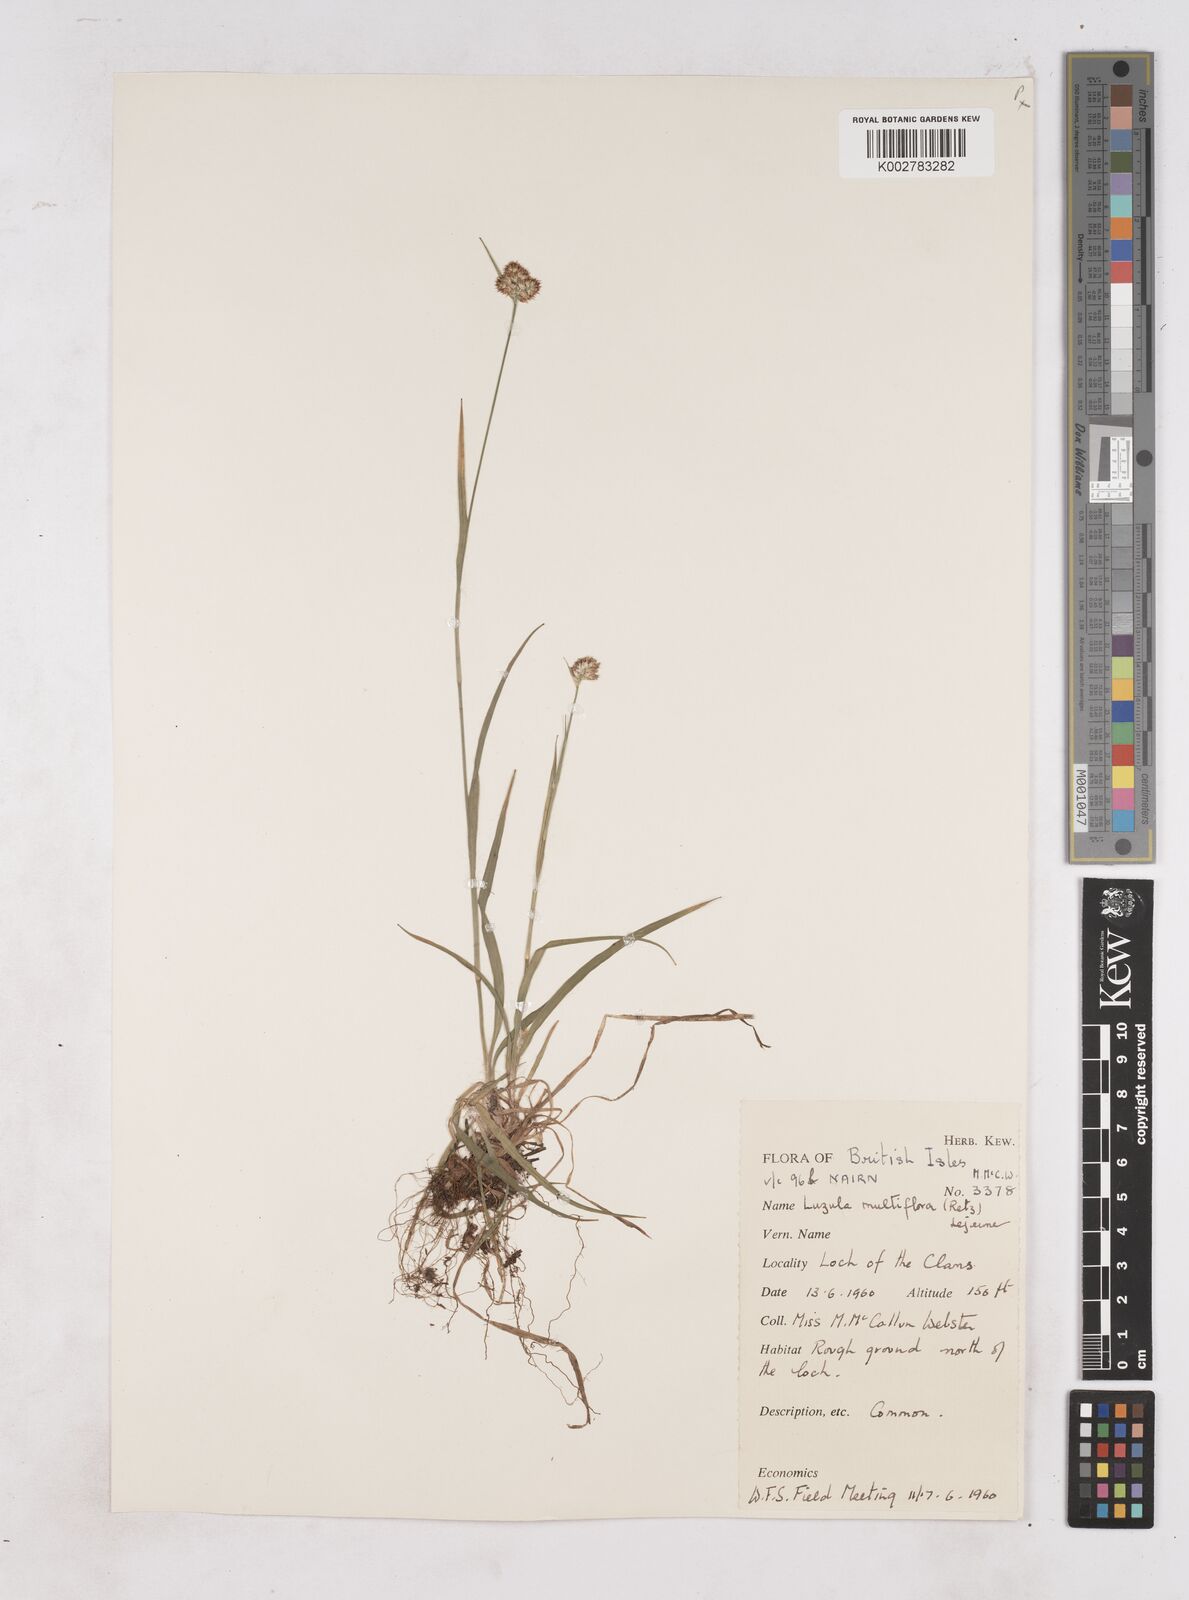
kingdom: Plantae
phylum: Tracheophyta
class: Liliopsida
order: Poales
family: Juncaceae
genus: Luzula
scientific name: Luzula multiflora
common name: Heath wood-rush
